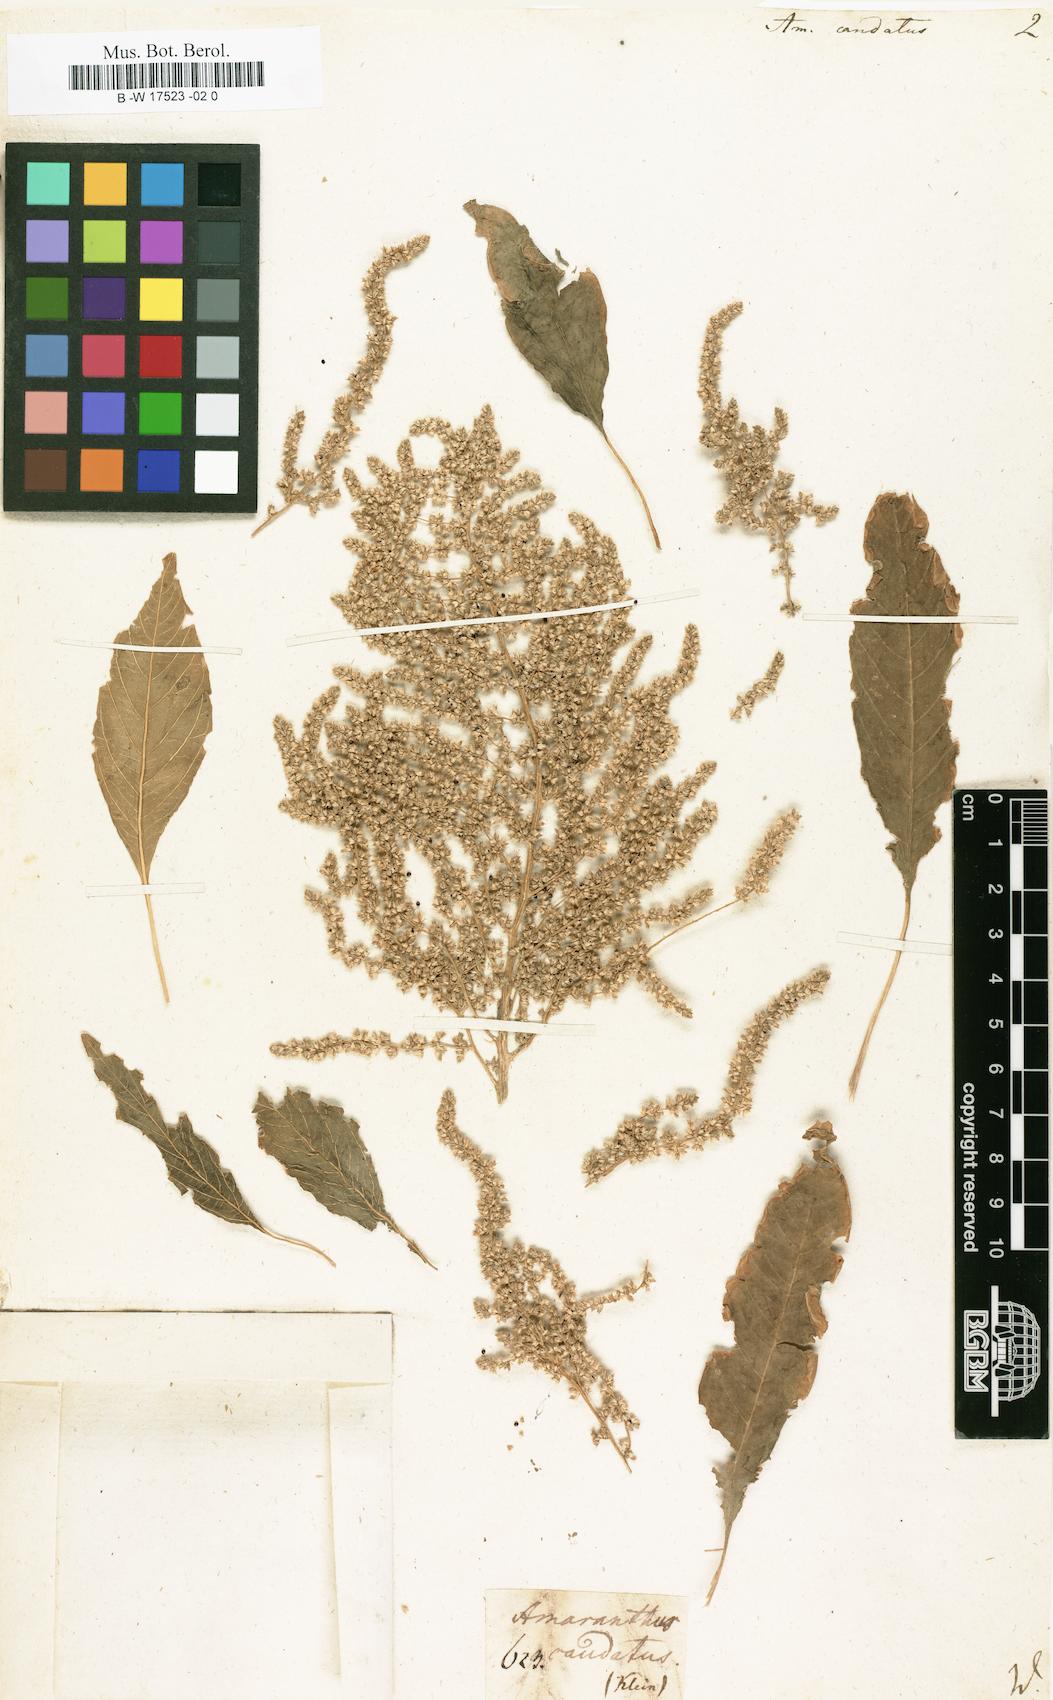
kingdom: Plantae
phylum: Tracheophyta
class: Magnoliopsida
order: Caryophyllales
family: Amaranthaceae
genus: Amaranthus
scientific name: Amaranthus caudatus
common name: Love-lies-bleeding
